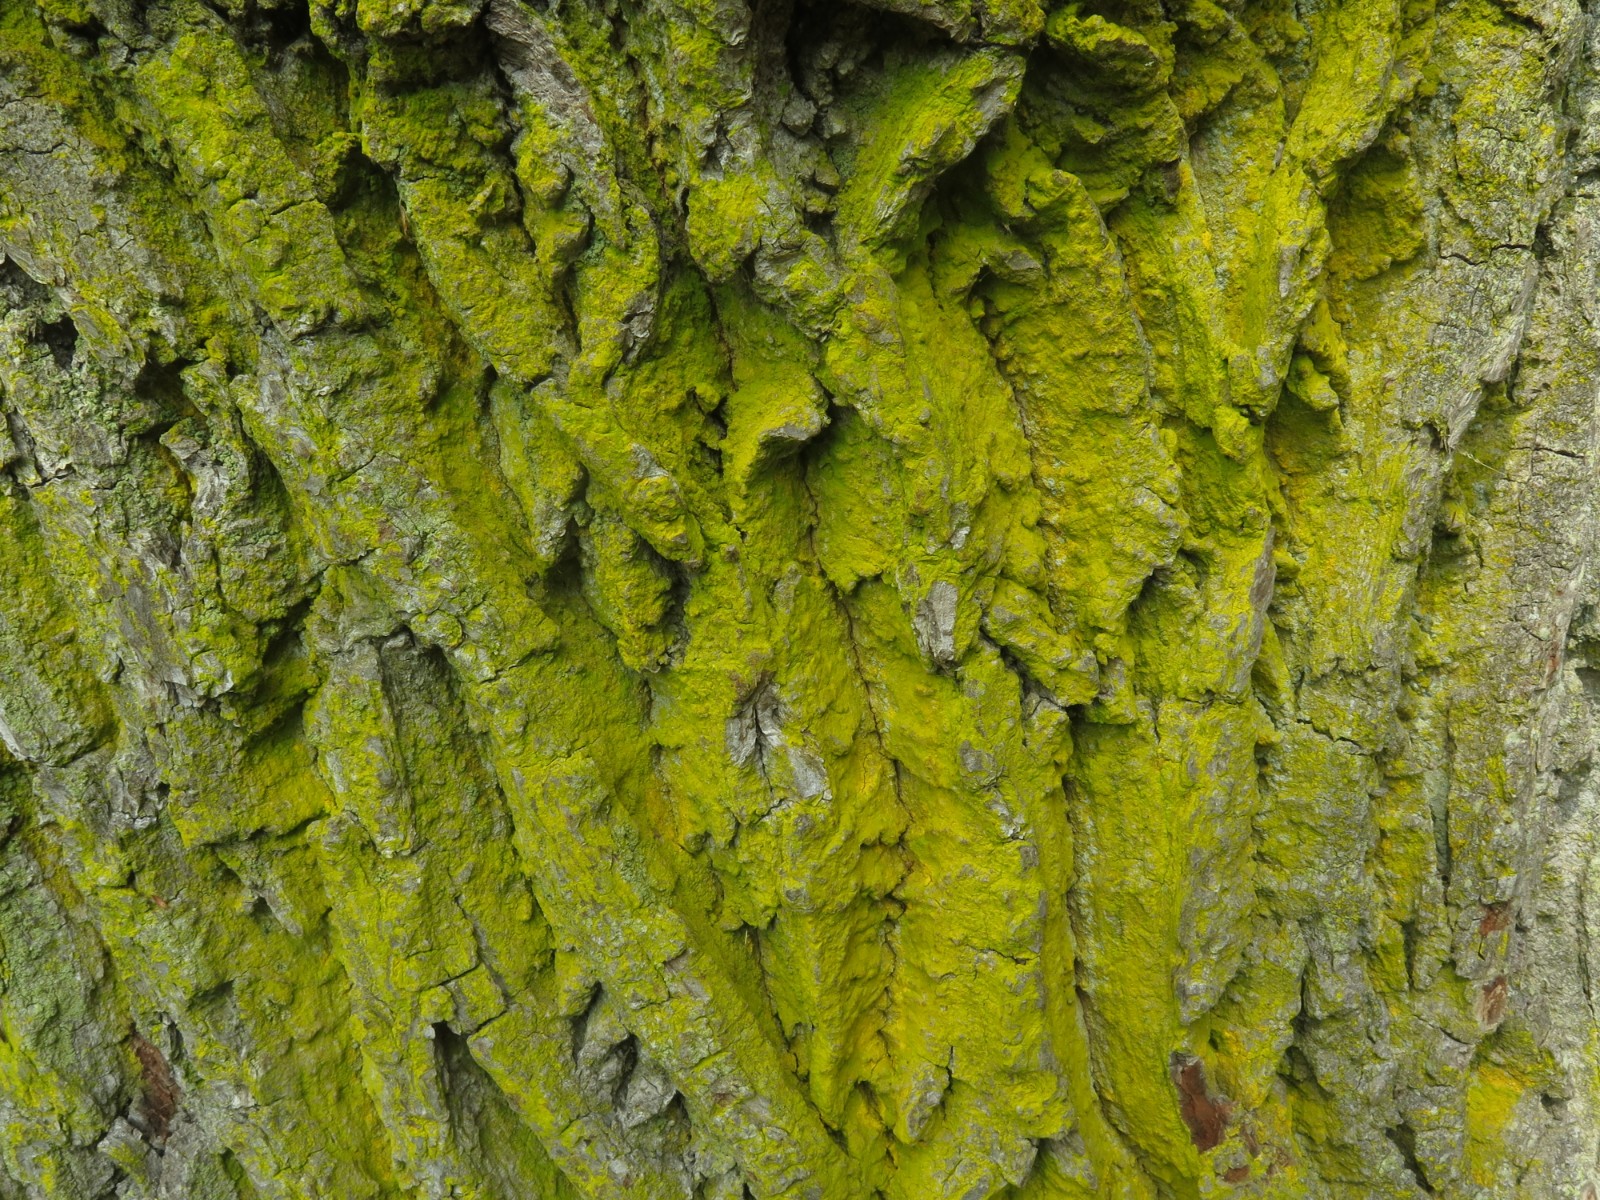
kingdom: Fungi
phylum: Ascomycota
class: Arthoniomycetes
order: Arthoniales
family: Chrysotrichaceae
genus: Chrysothrix
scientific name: Chrysothrix candelaris
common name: gul støvlav
